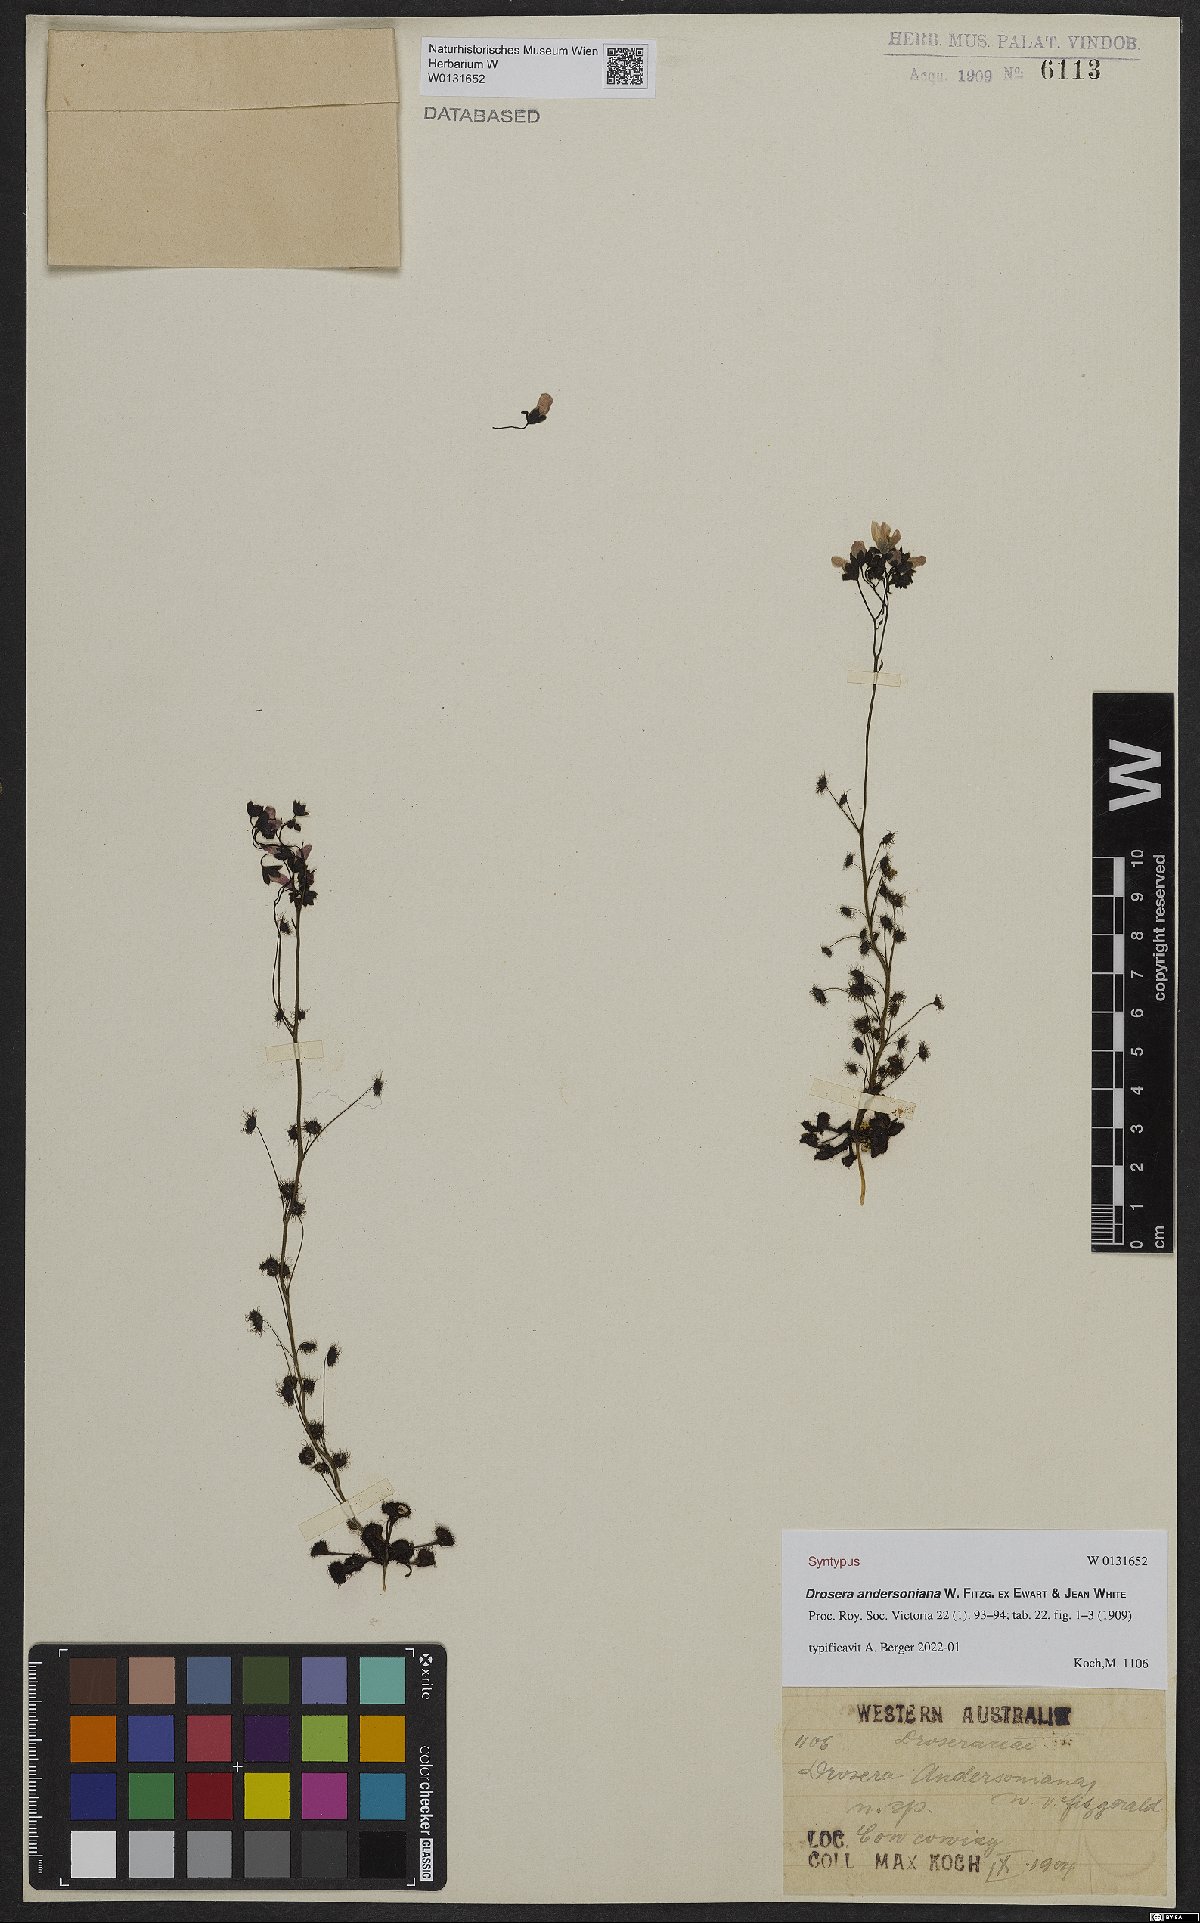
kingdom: Plantae
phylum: Tracheophyta
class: Magnoliopsida
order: Caryophyllales
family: Droseraceae
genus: Drosera
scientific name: Drosera andersoniana
